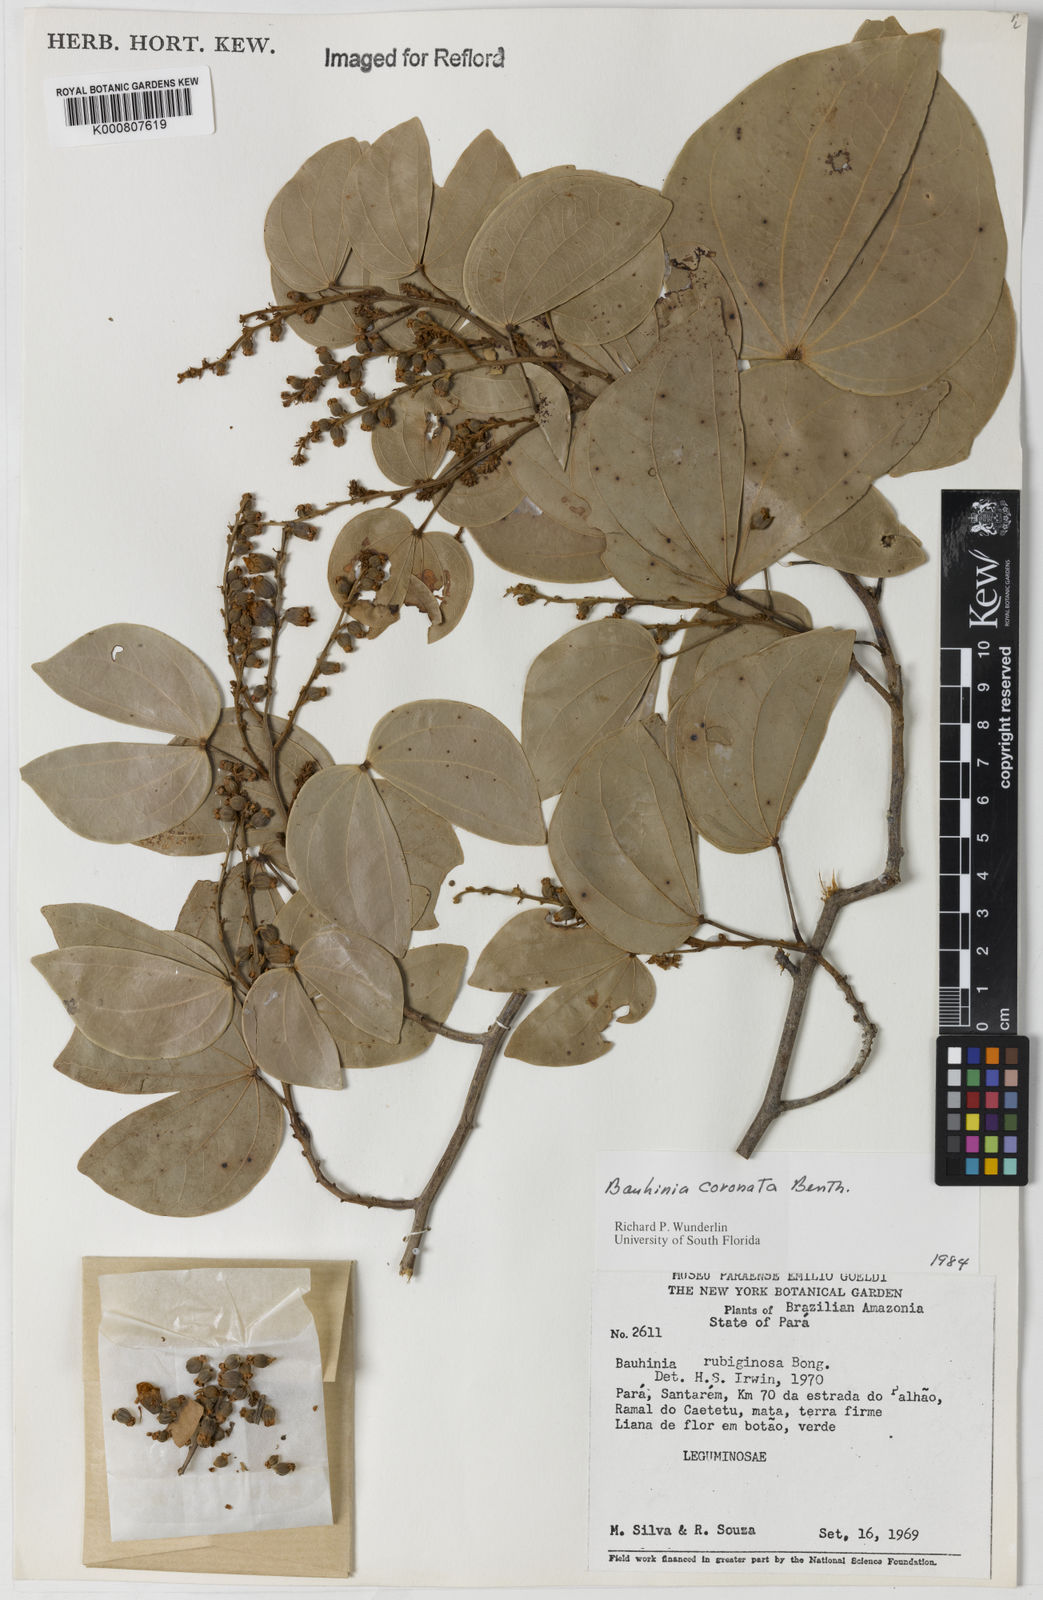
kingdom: Plantae
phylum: Tracheophyta
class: Magnoliopsida
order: Fabales
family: Fabaceae
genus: Schnella
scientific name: Schnella outimouta
